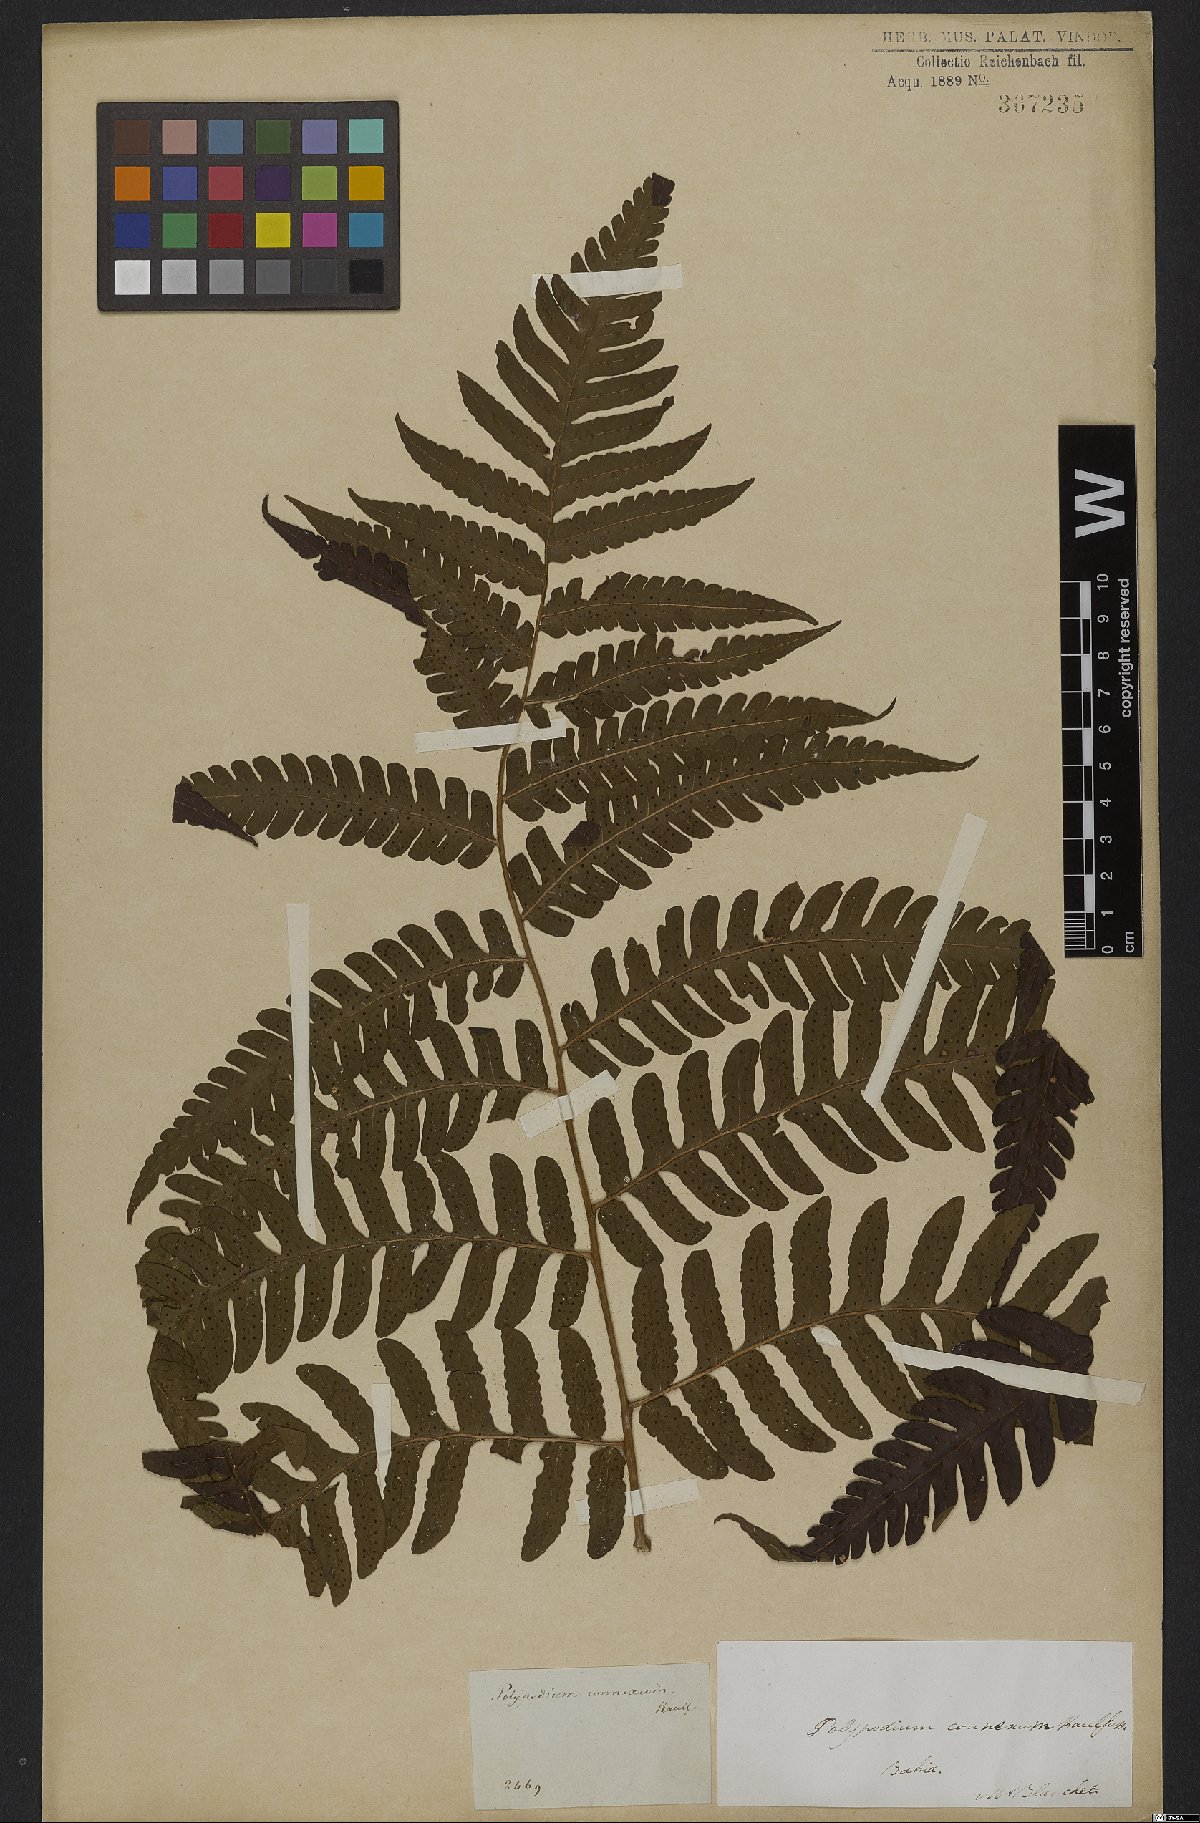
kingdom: Plantae
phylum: Tracheophyta
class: Polypodiopsida
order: Polypodiales
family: Dryopteridaceae
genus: Megalastrum
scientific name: Megalastrum connexum
